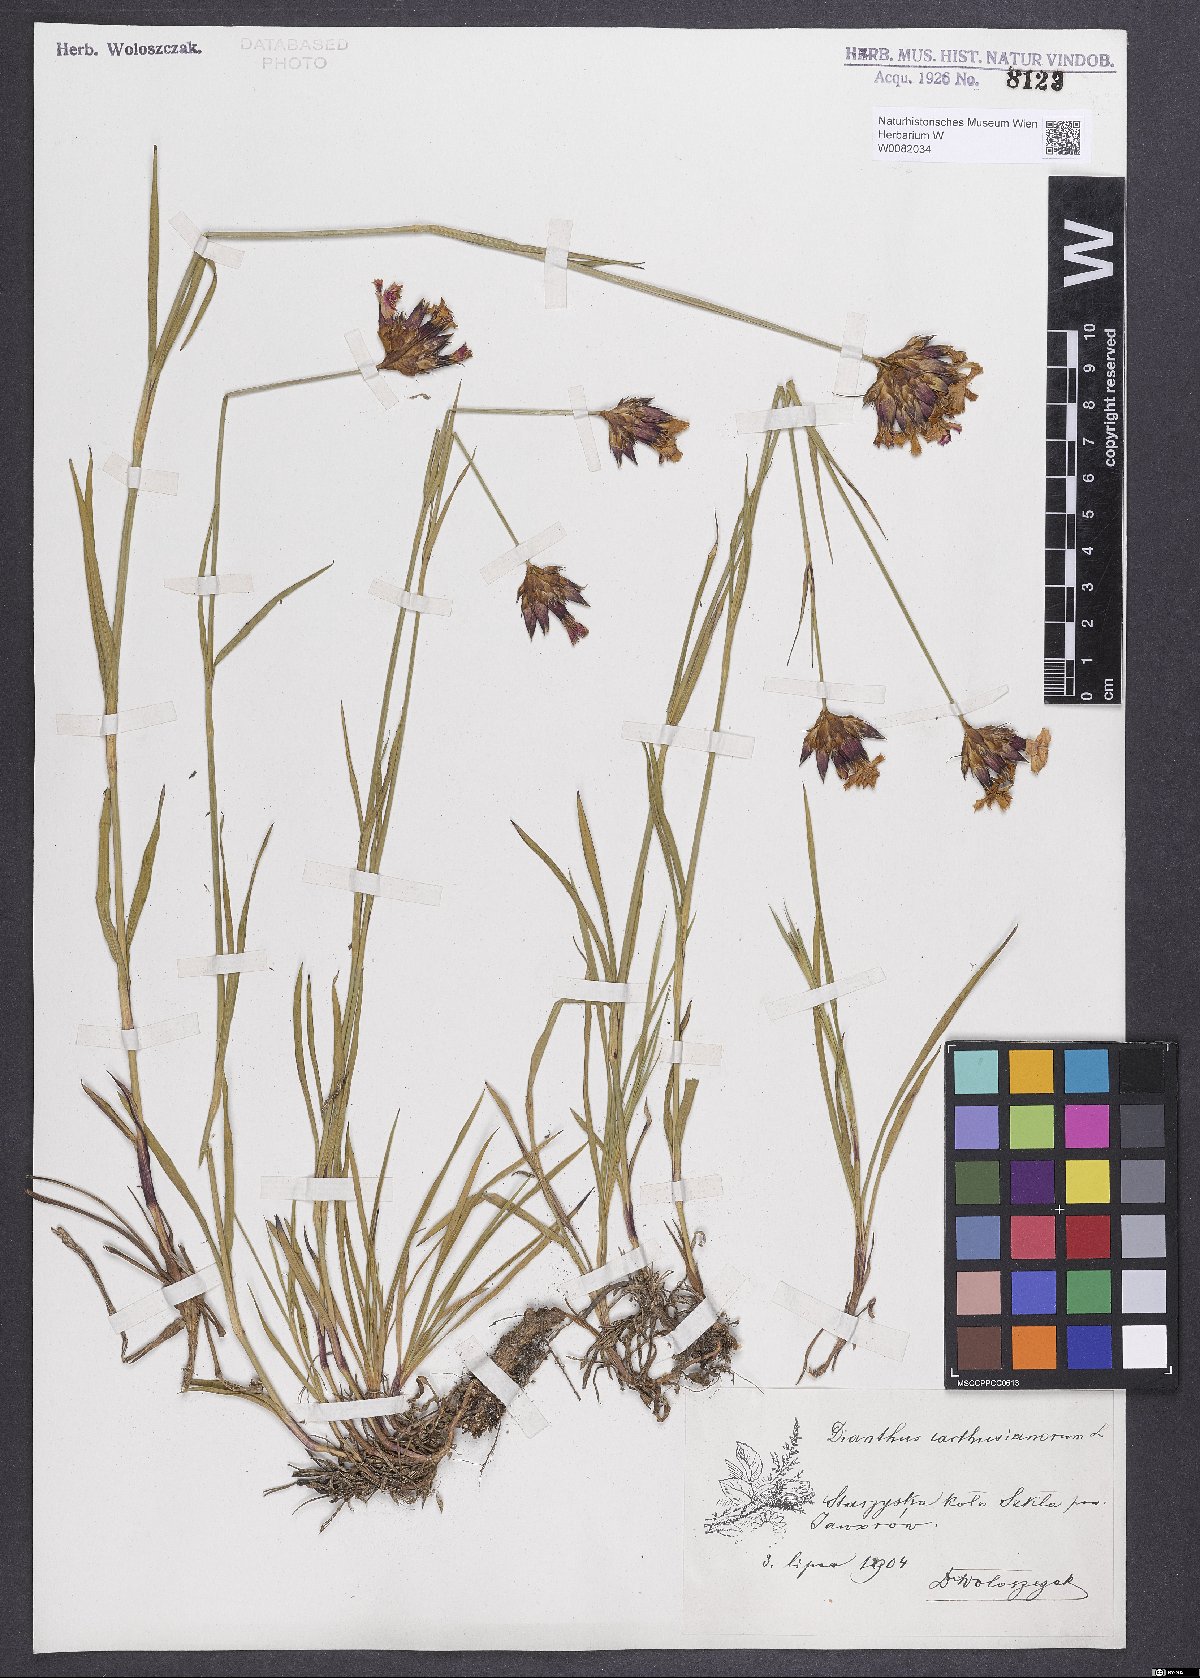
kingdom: Plantae
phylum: Tracheophyta
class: Magnoliopsida
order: Caryophyllales
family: Caryophyllaceae
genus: Dianthus
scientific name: Dianthus carthusianorum
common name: Carthusian pink
